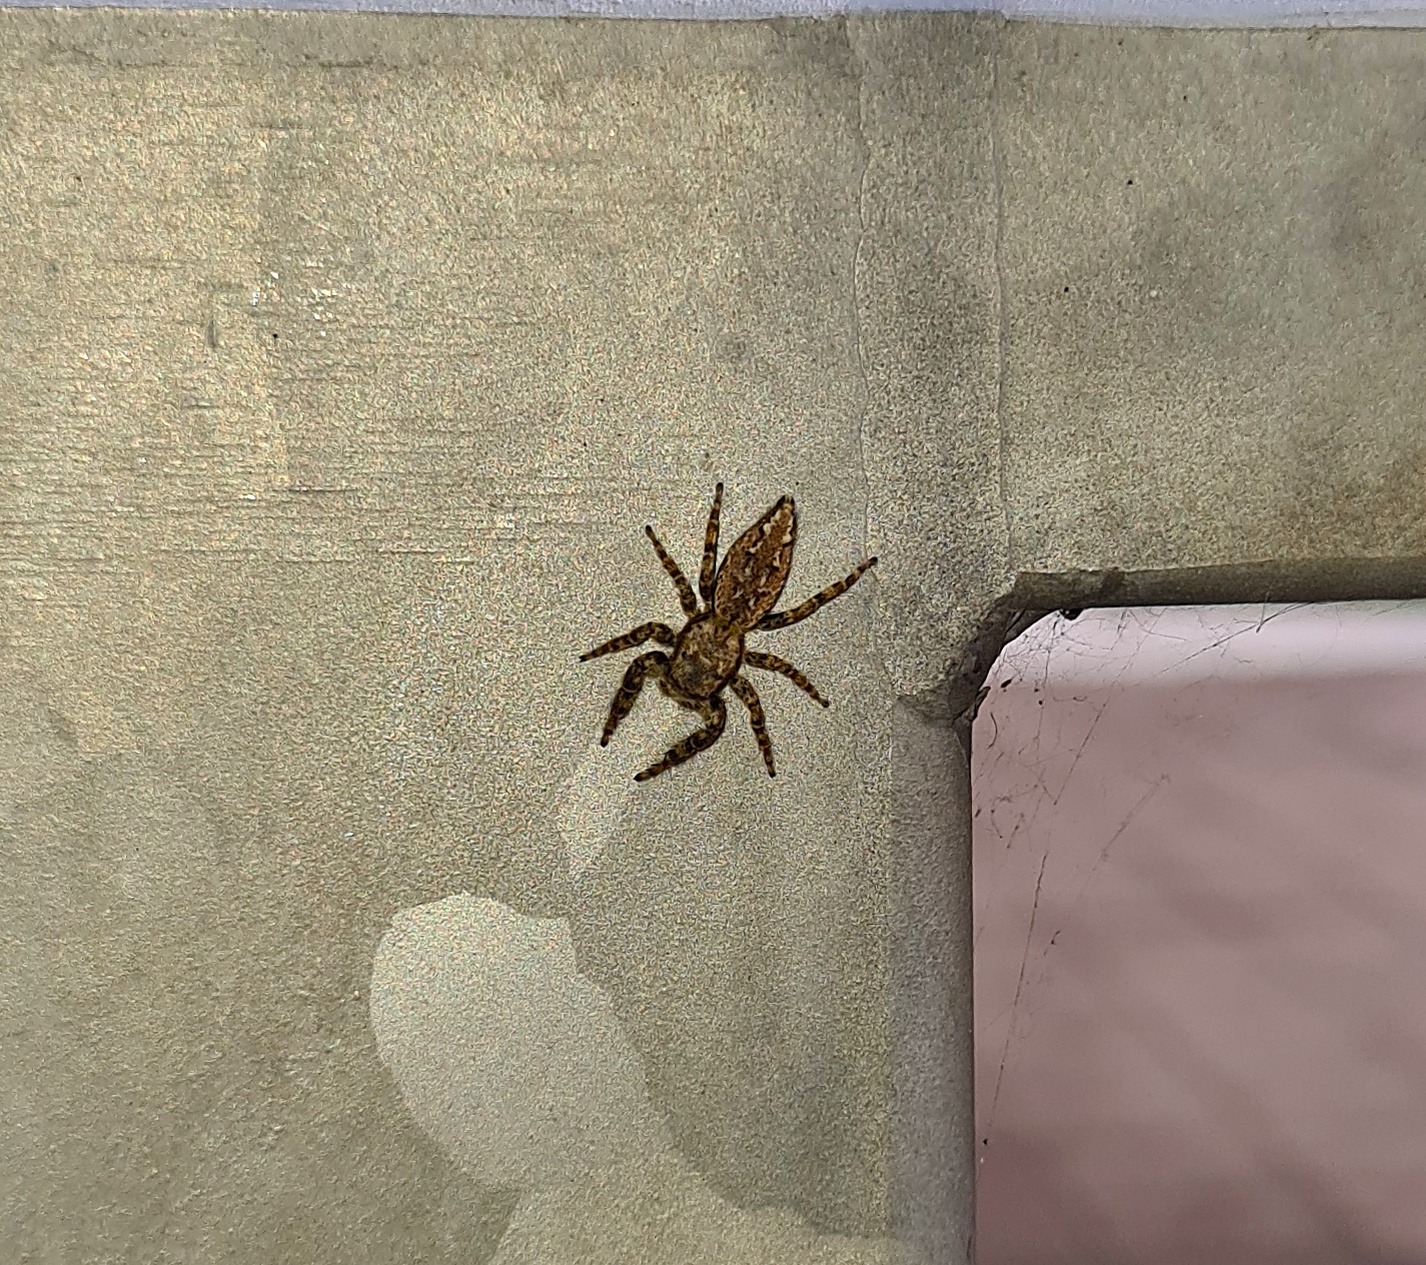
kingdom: Animalia
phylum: Arthropoda
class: Arachnida
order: Araneae
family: Salticidae
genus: Marpissa
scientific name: Marpissa muscosa
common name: Stor springedderkop
